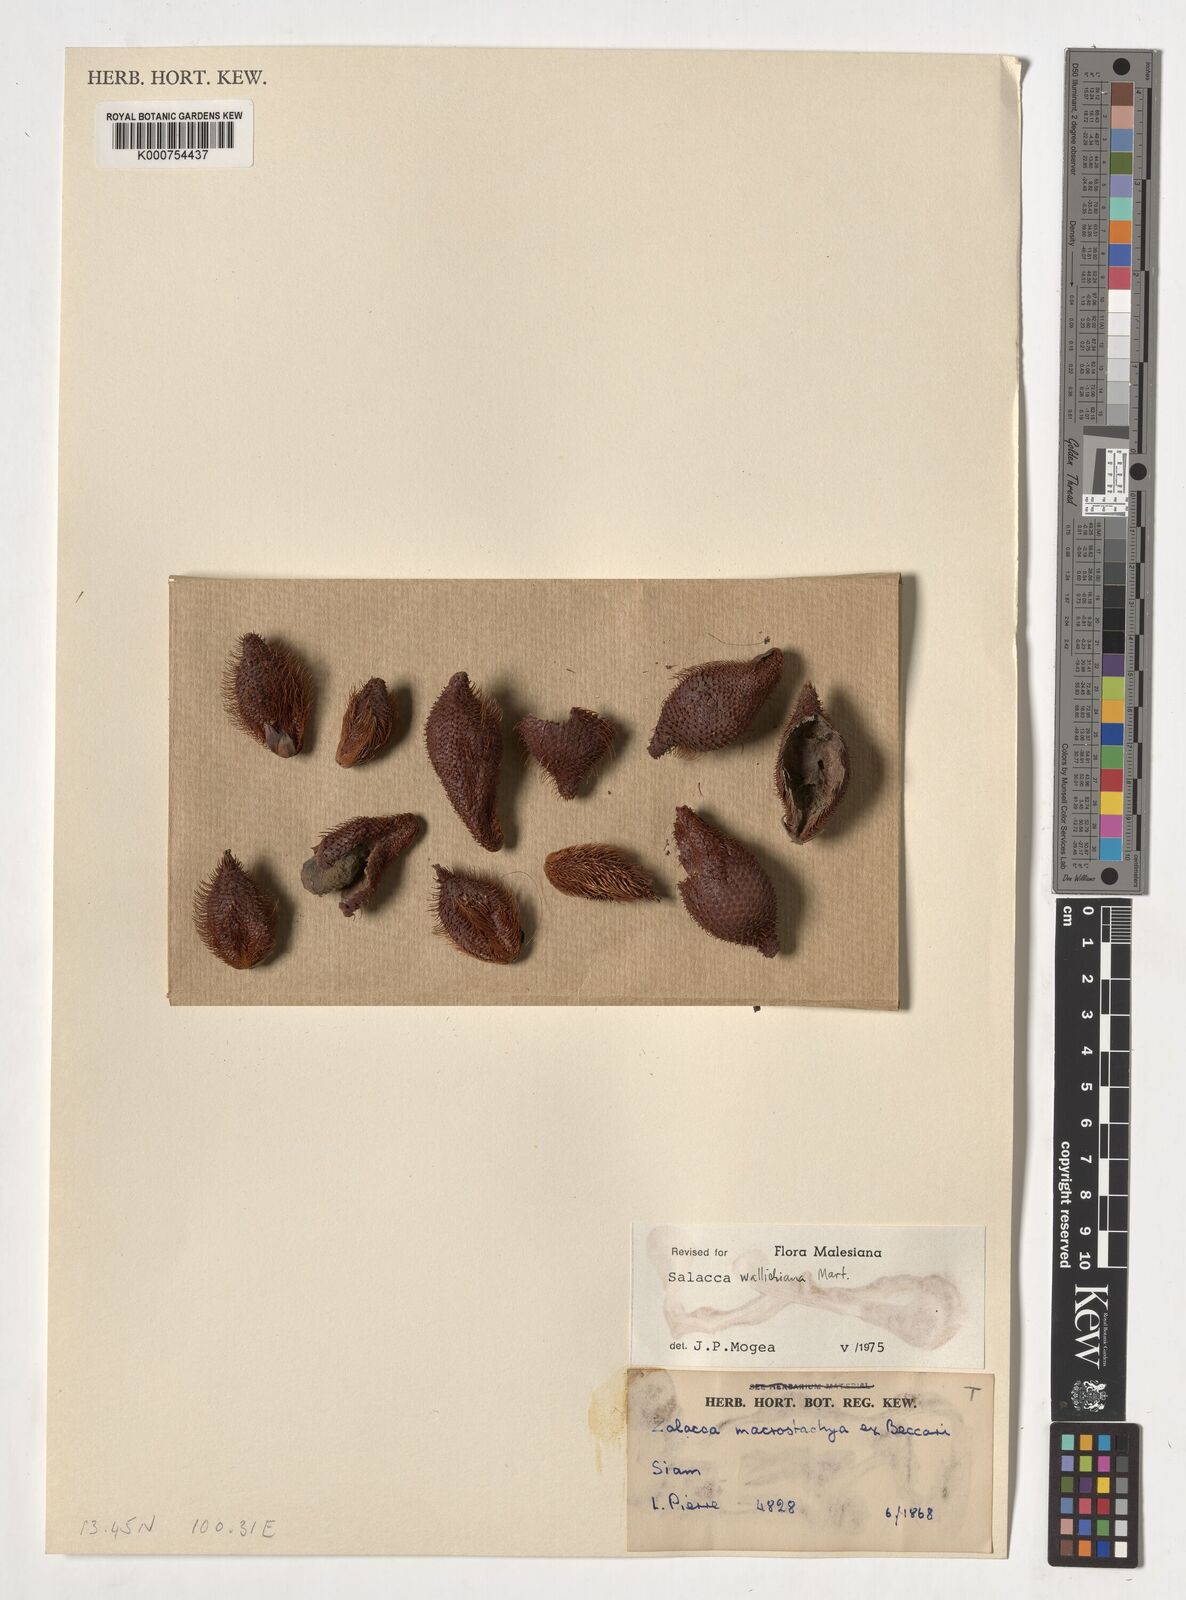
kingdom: Plantae
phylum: Tracheophyta
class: Liliopsida
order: Arecales
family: Arecaceae
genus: Salacca
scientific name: Salacca wallichiana
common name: Rakum palm
